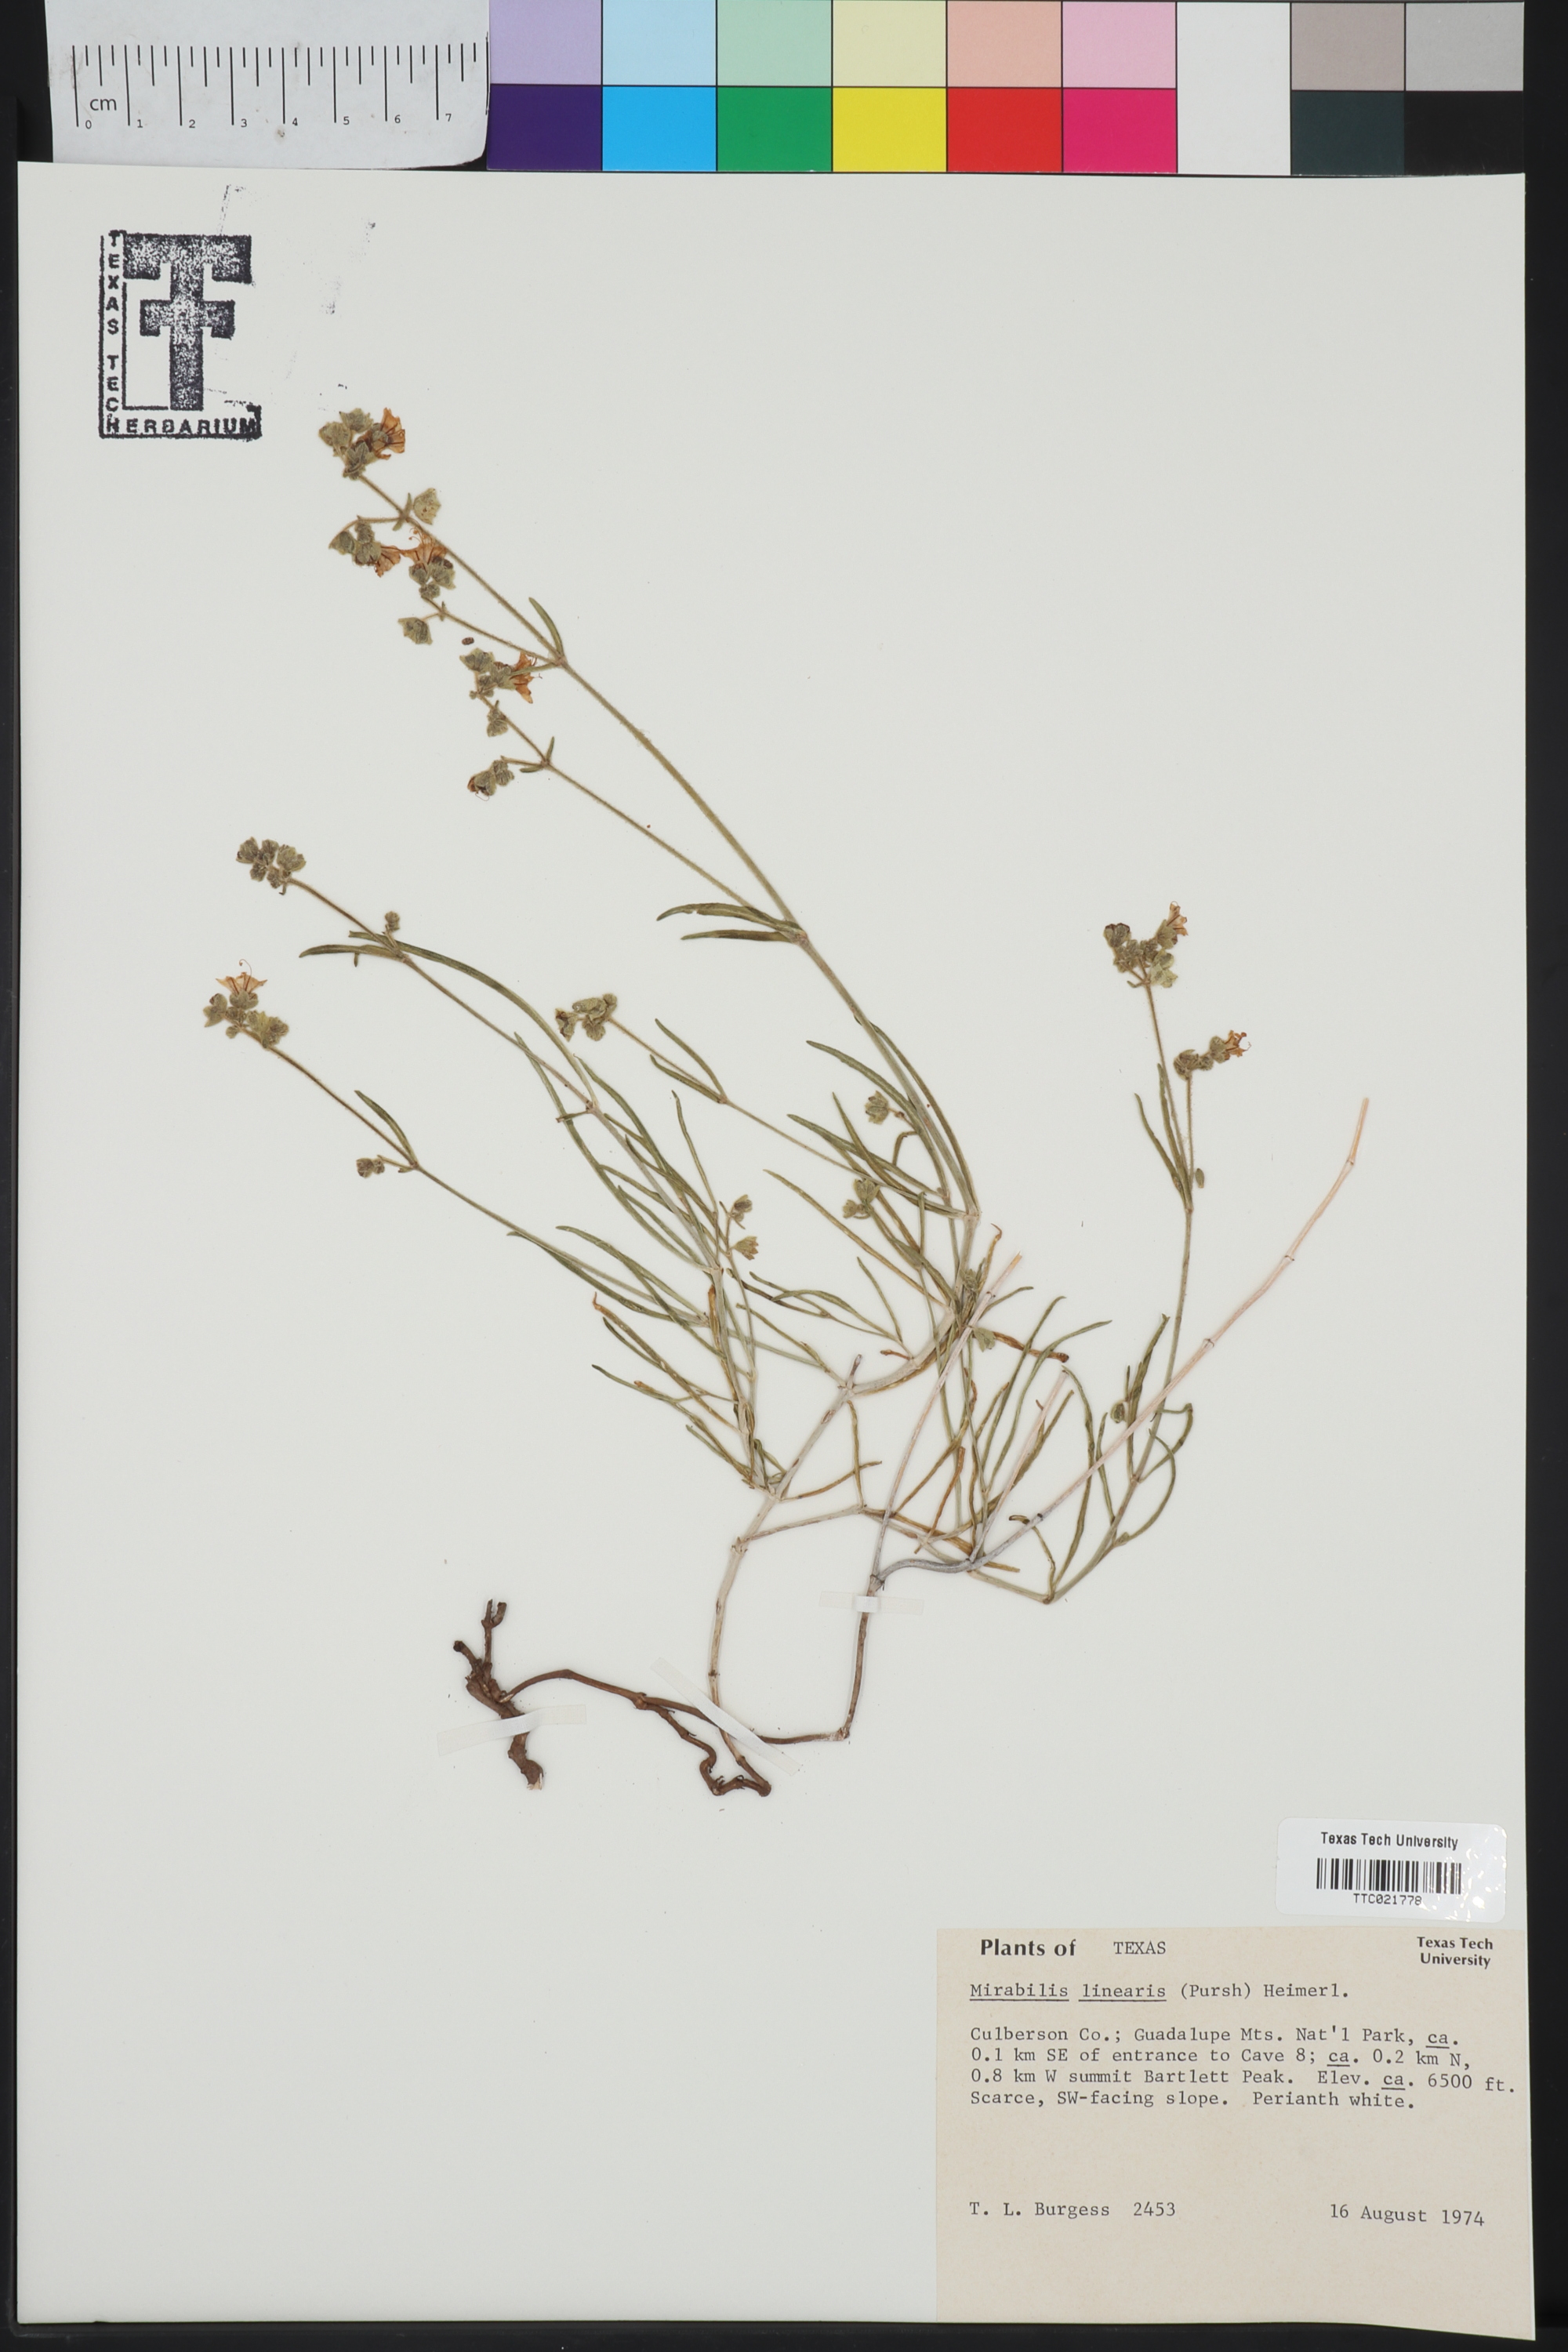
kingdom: Plantae
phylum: Tracheophyta
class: Magnoliopsida
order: Caryophyllales
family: Nyctaginaceae
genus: Mirabilis
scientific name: Mirabilis linearis
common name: Linear-leaved four-o'clock
